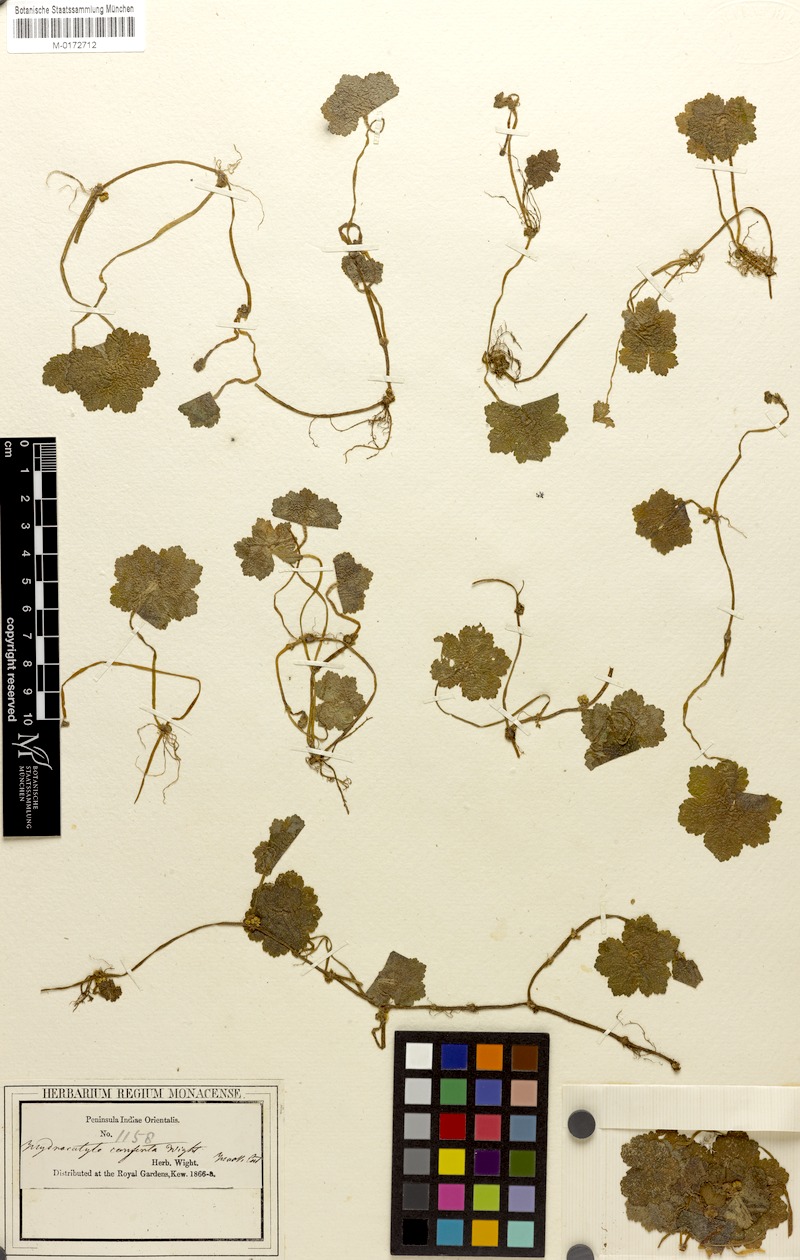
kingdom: Plantae
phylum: Tracheophyta
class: Magnoliopsida
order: Apiales
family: Araliaceae
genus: Hydrocotyle
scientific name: Hydrocotyle conferta
